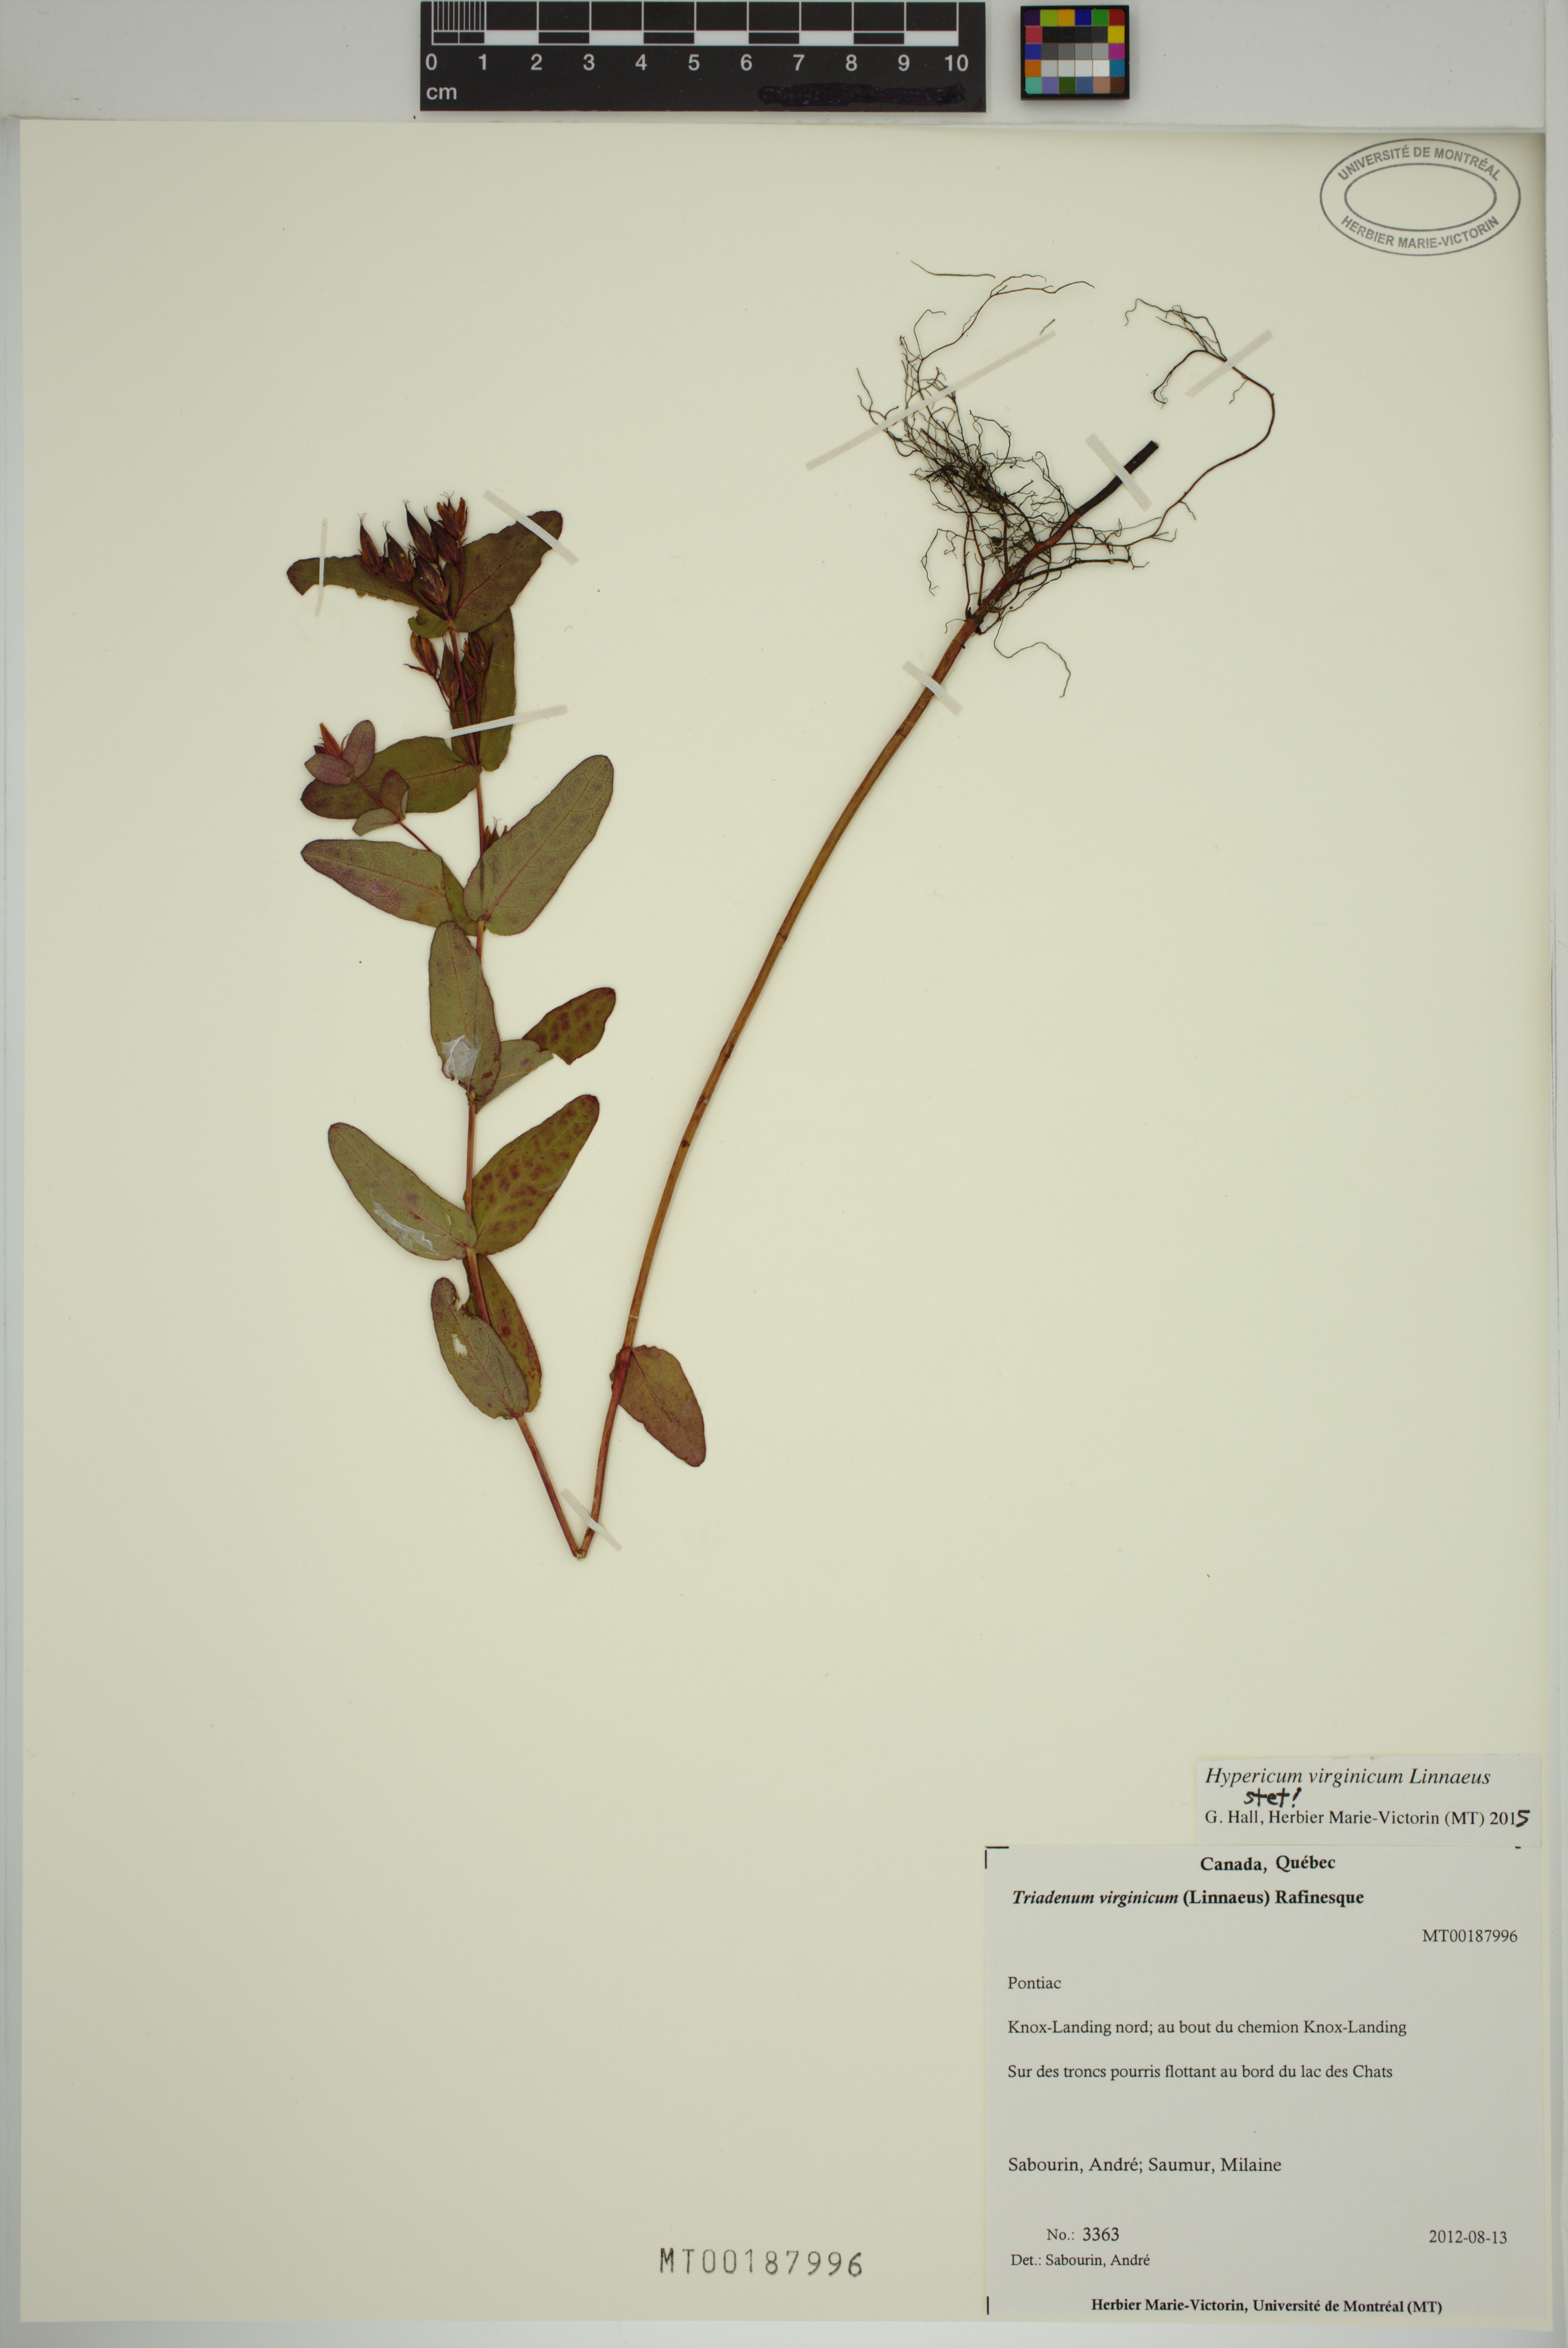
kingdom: Plantae
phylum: Tracheophyta
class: Magnoliopsida
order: Malpighiales
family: Hypericaceae
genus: Triadenum
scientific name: Triadenum virginicum
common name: Marsh st. john's-wort
